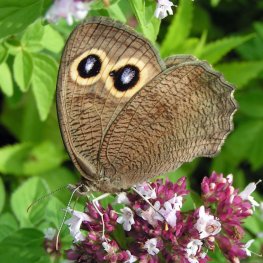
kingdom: Animalia
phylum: Arthropoda
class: Insecta
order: Lepidoptera
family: Nymphalidae
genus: Cercyonis
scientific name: Cercyonis pegala
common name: Common Wood-Nymph
